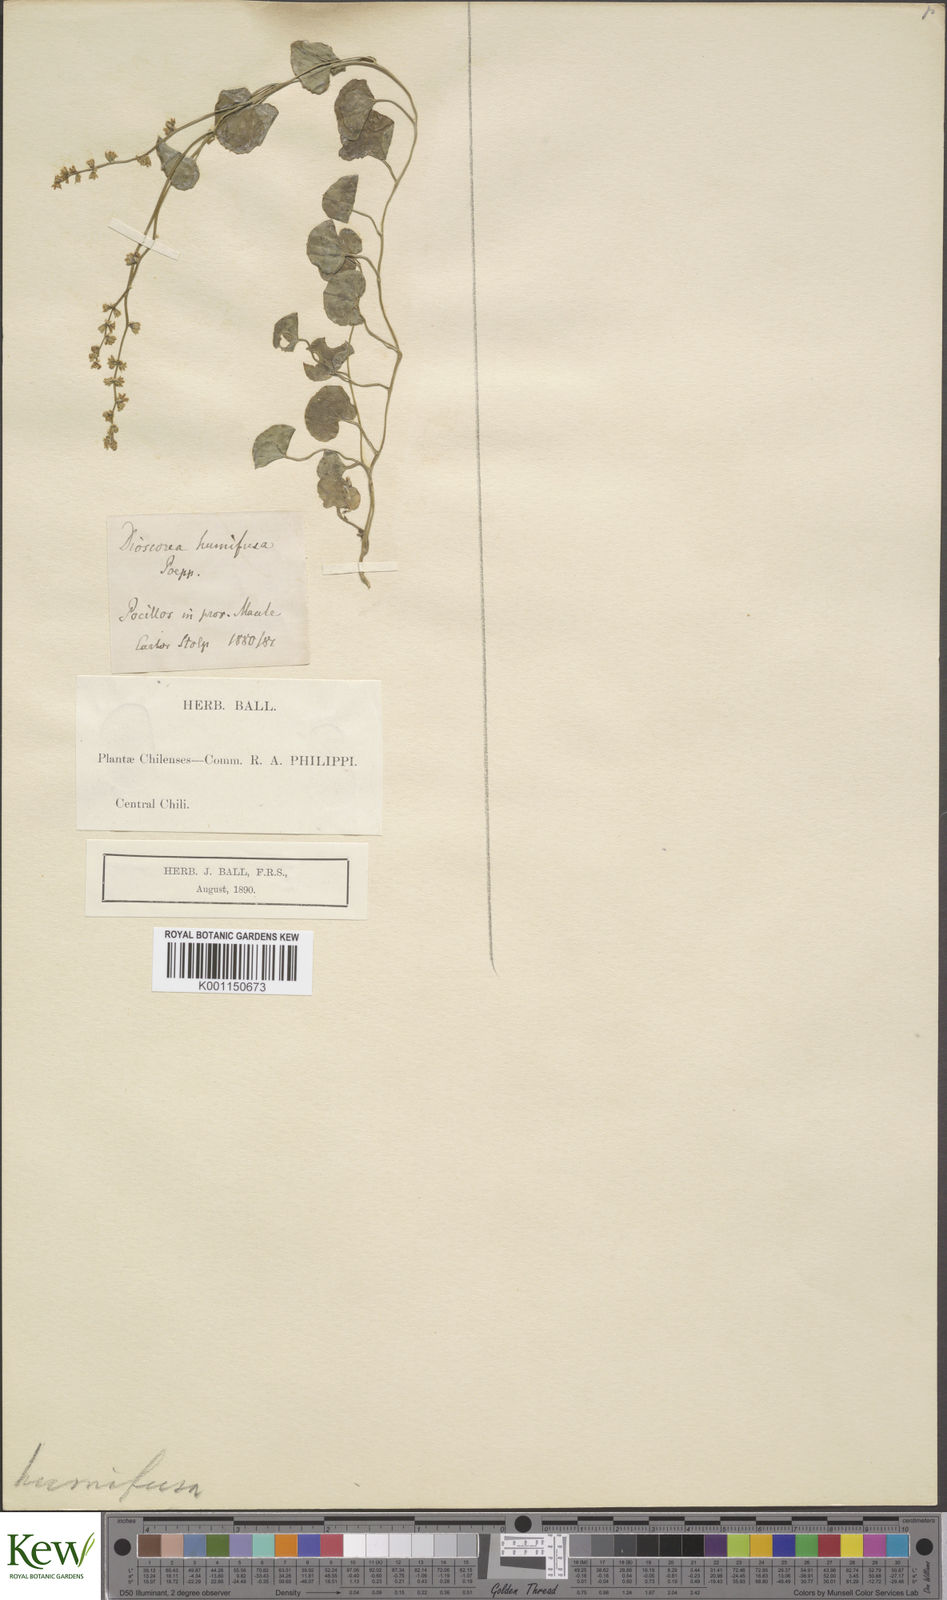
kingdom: Plantae
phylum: Tracheophyta
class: Liliopsida
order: Dioscoreales
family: Dioscoreaceae
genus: Dioscorea
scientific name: Dioscorea humifusa
